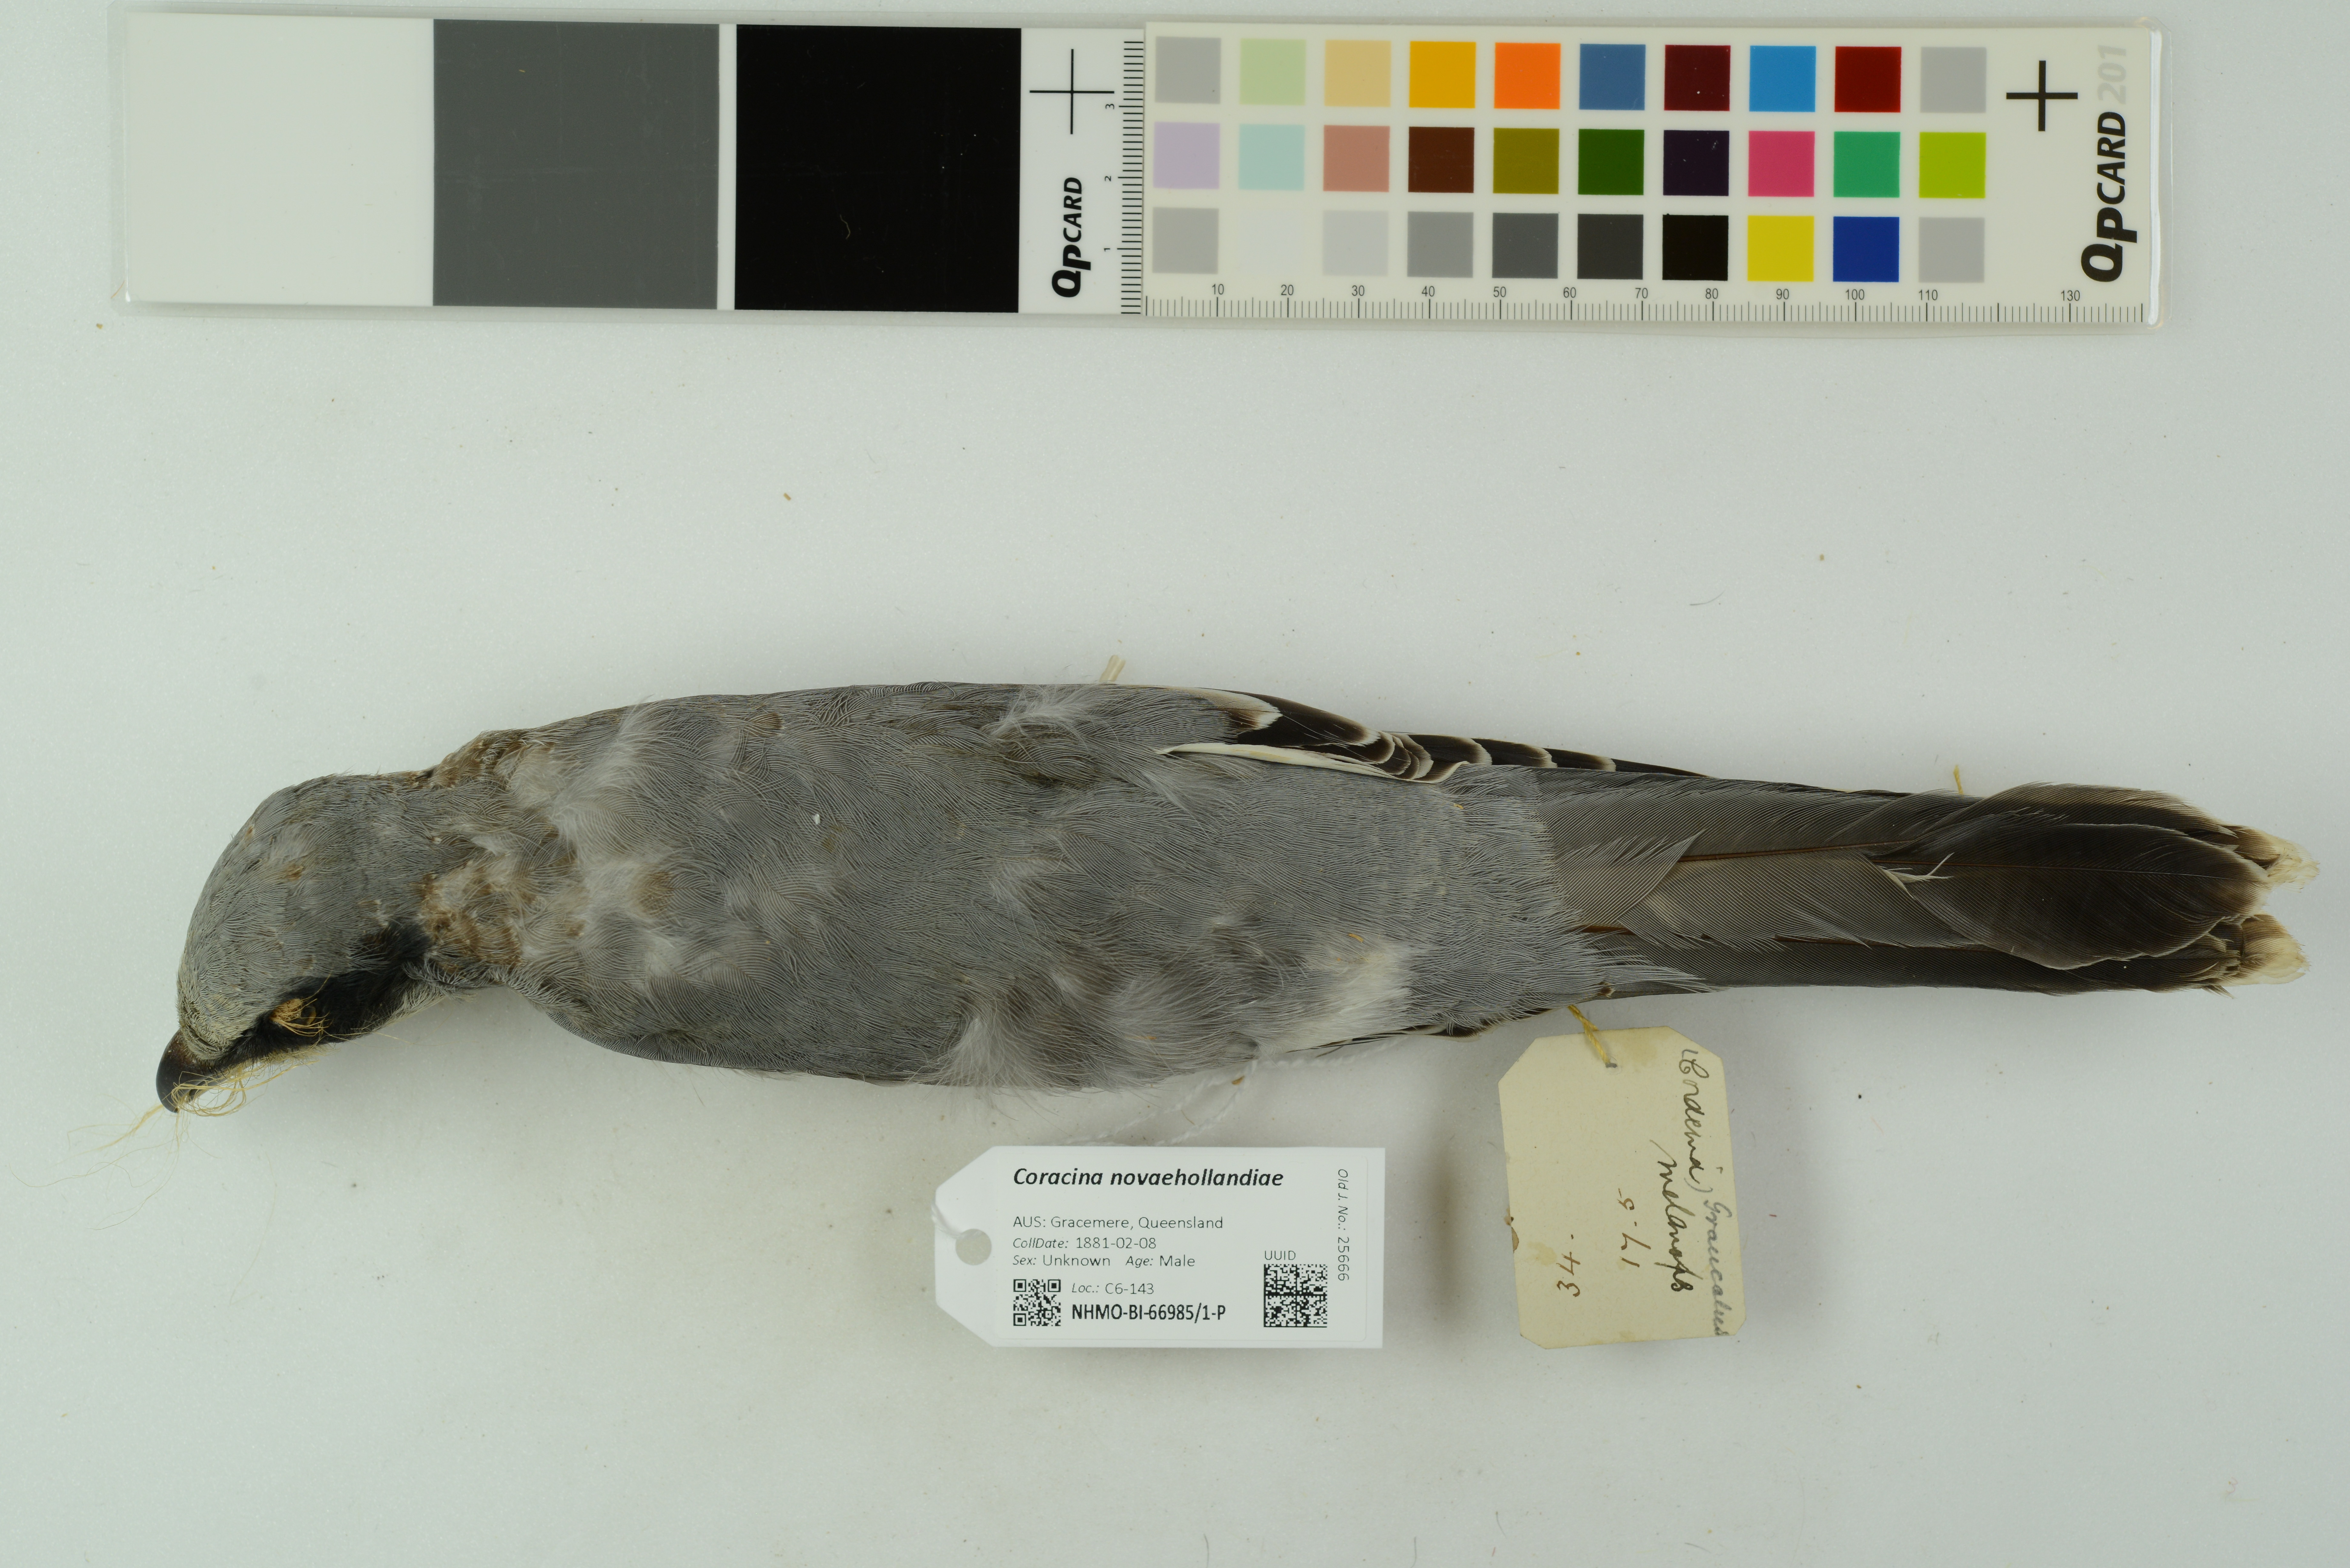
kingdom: Animalia
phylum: Chordata
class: Aves
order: Passeriformes
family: Campephagidae
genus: Coracina
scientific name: Coracina novaehollandiae
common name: Black-faced cuckooshrike
